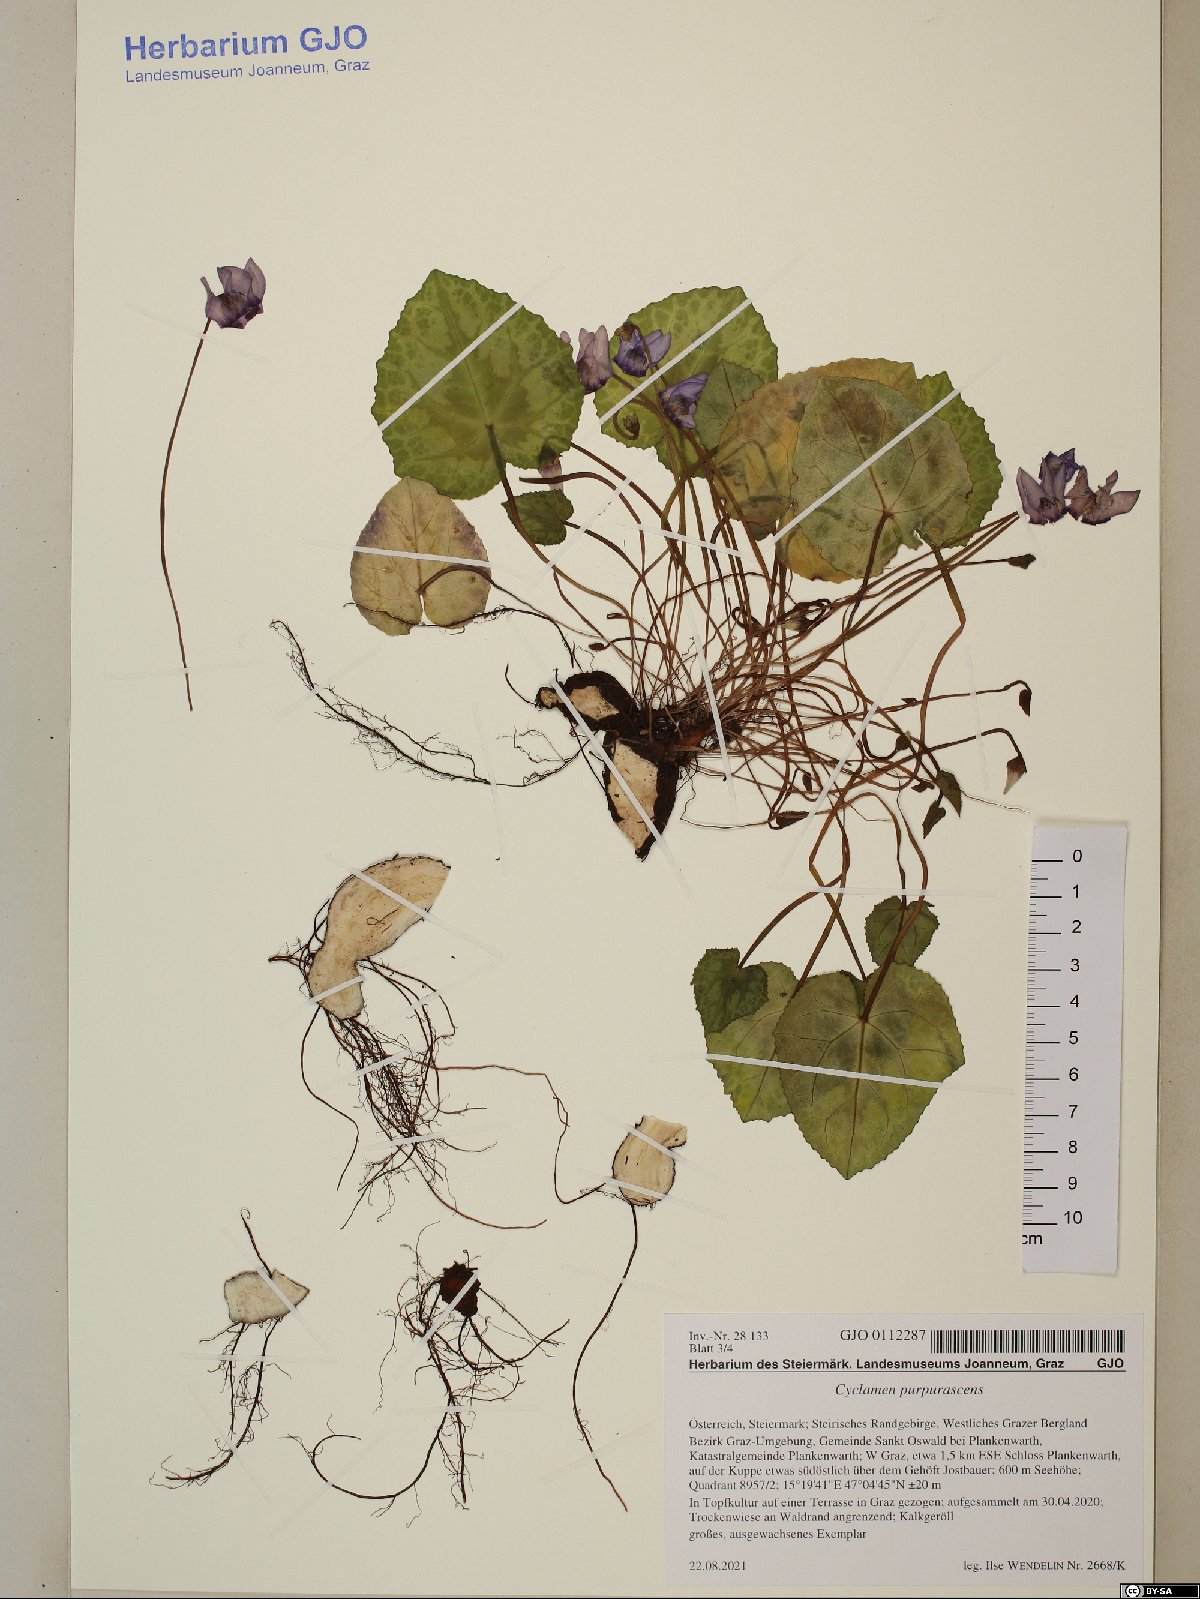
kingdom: Plantae
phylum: Tracheophyta
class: Magnoliopsida
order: Ericales
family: Primulaceae
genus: Cyclamen
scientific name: Cyclamen purpurascens
